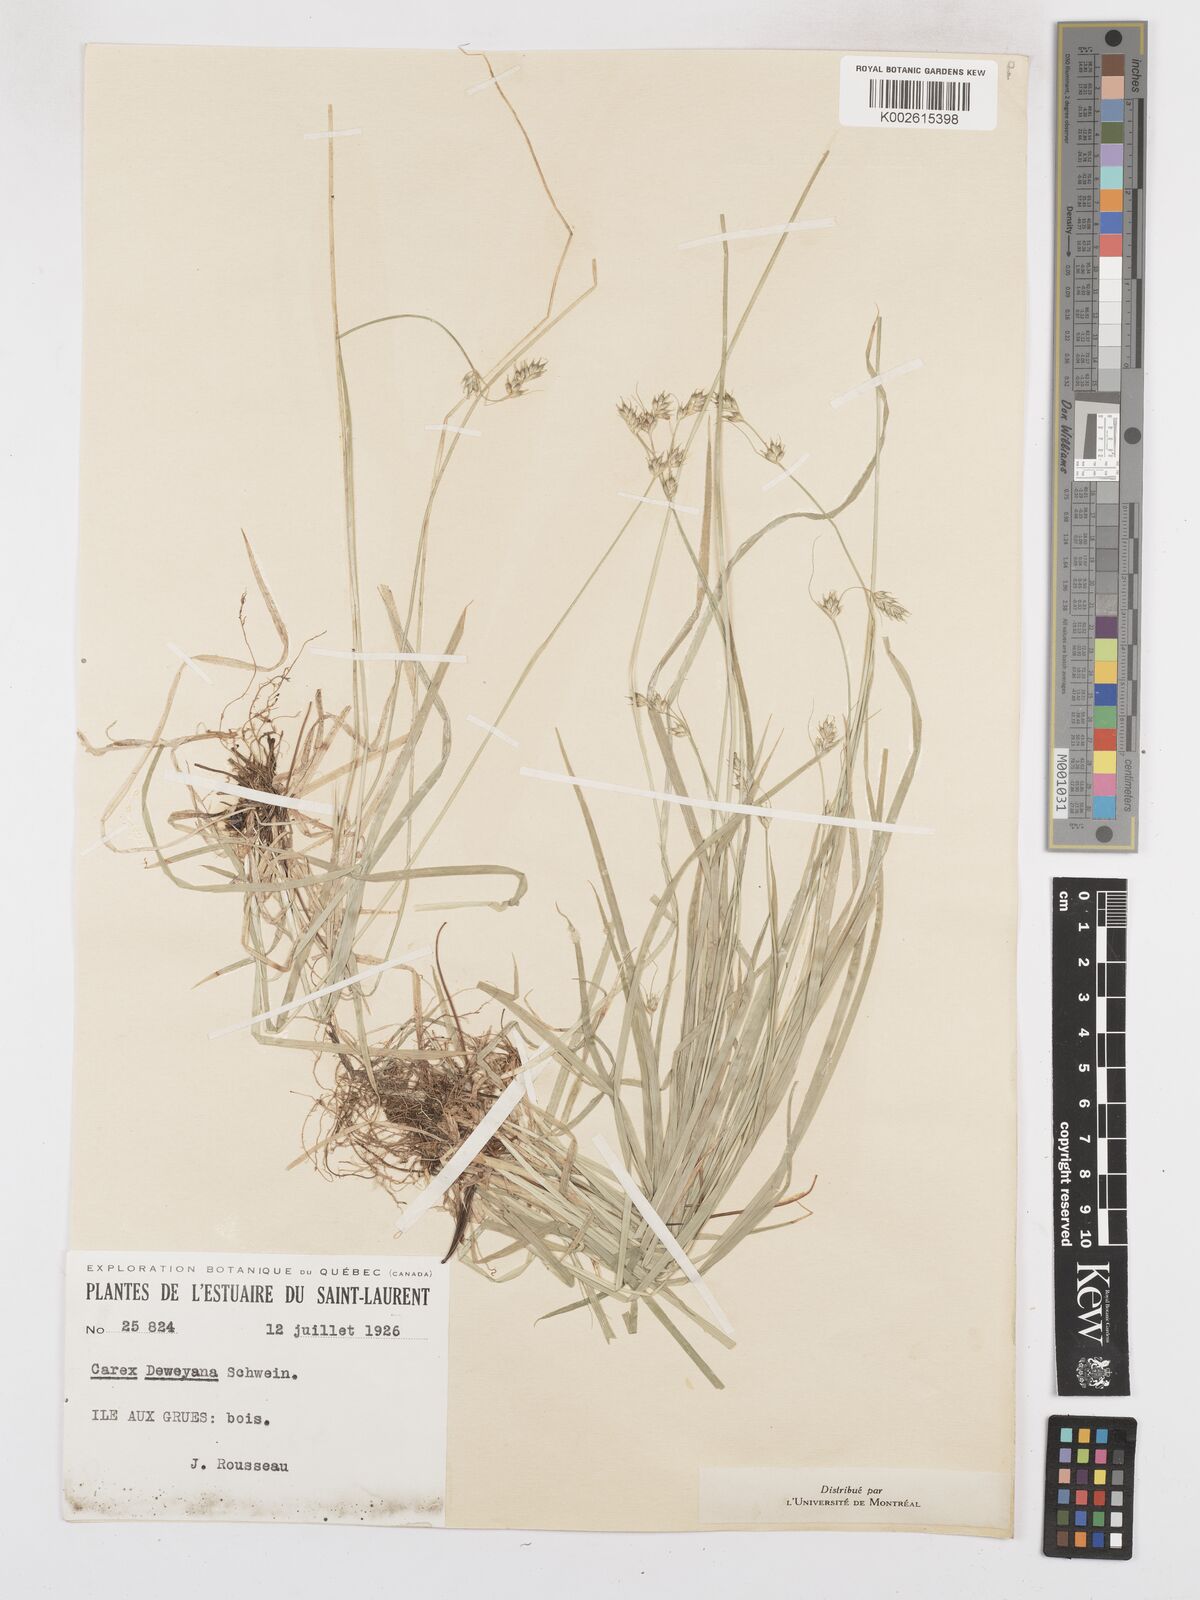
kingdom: Plantae
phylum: Tracheophyta
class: Liliopsida
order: Poales
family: Cyperaceae
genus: Carex
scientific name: Carex bolanderi
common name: Bolander's sedge
